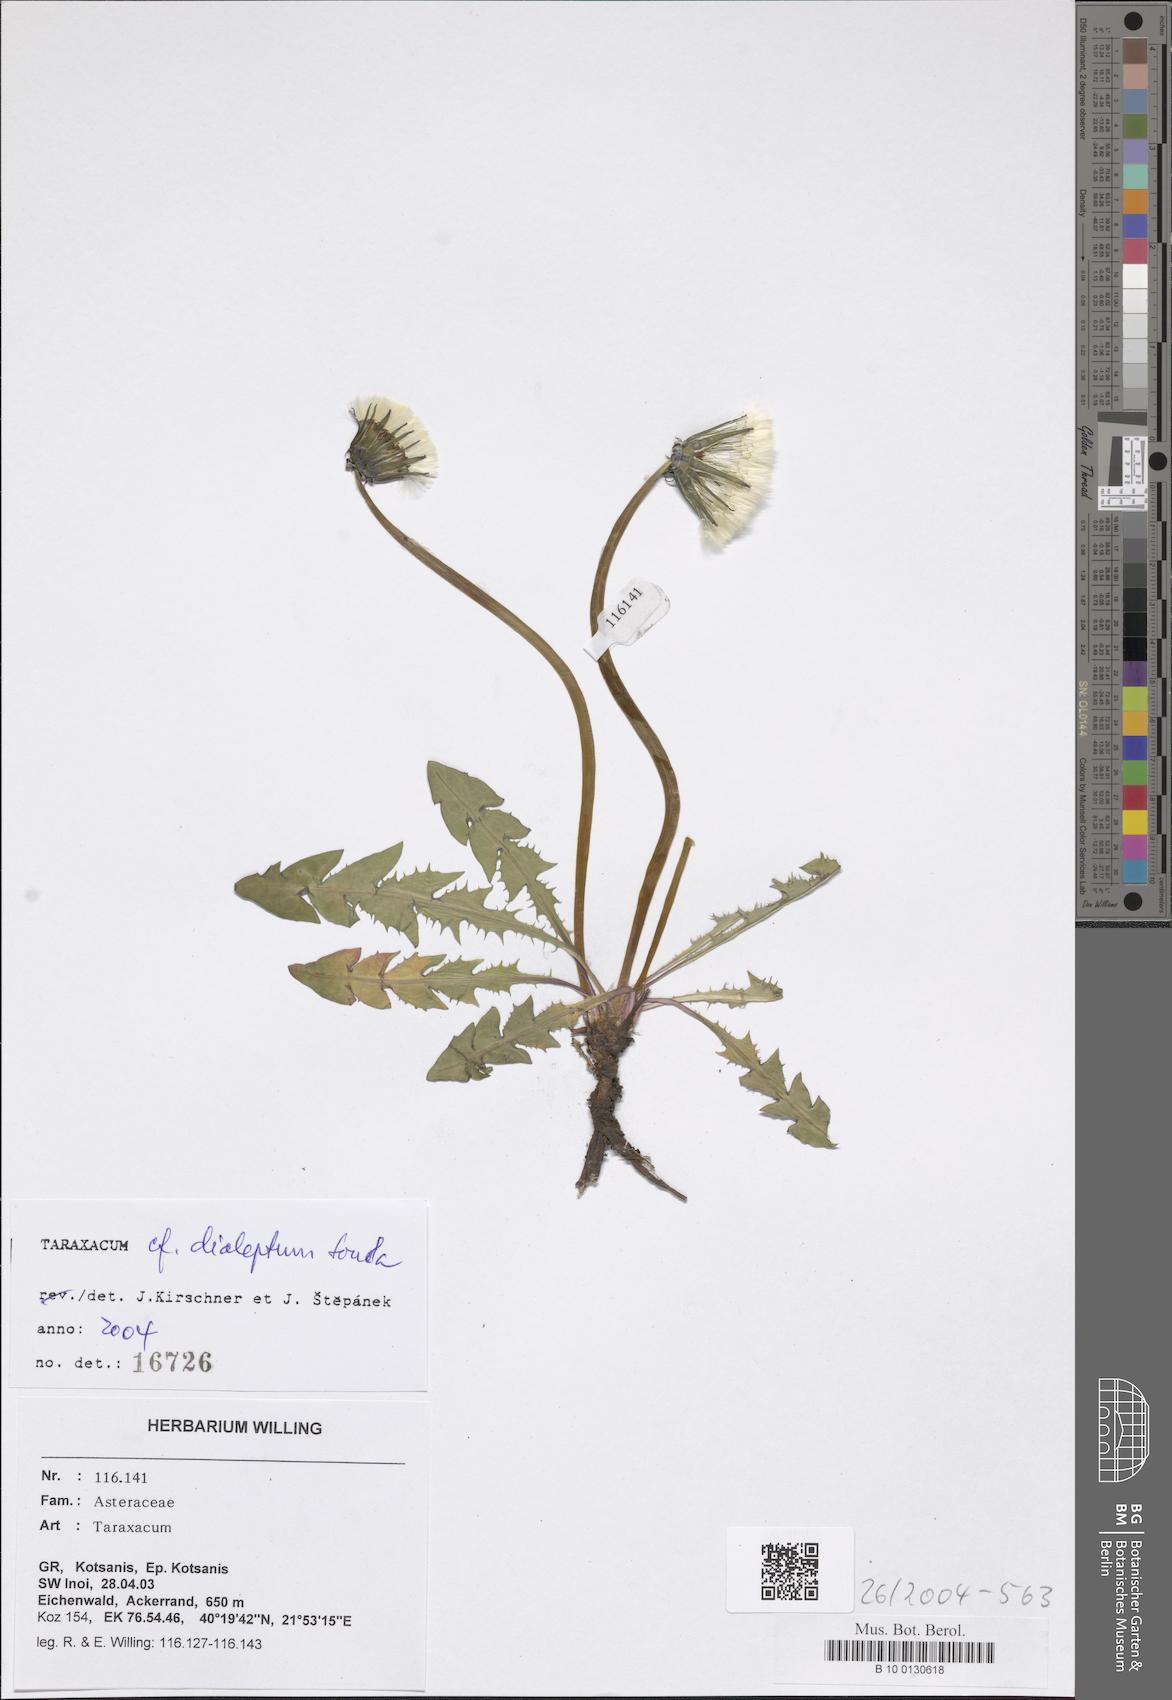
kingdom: Plantae
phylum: Tracheophyta
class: Magnoliopsida
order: Asterales
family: Asteraceae
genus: Taraxacum
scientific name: Taraxacum dialeptum
